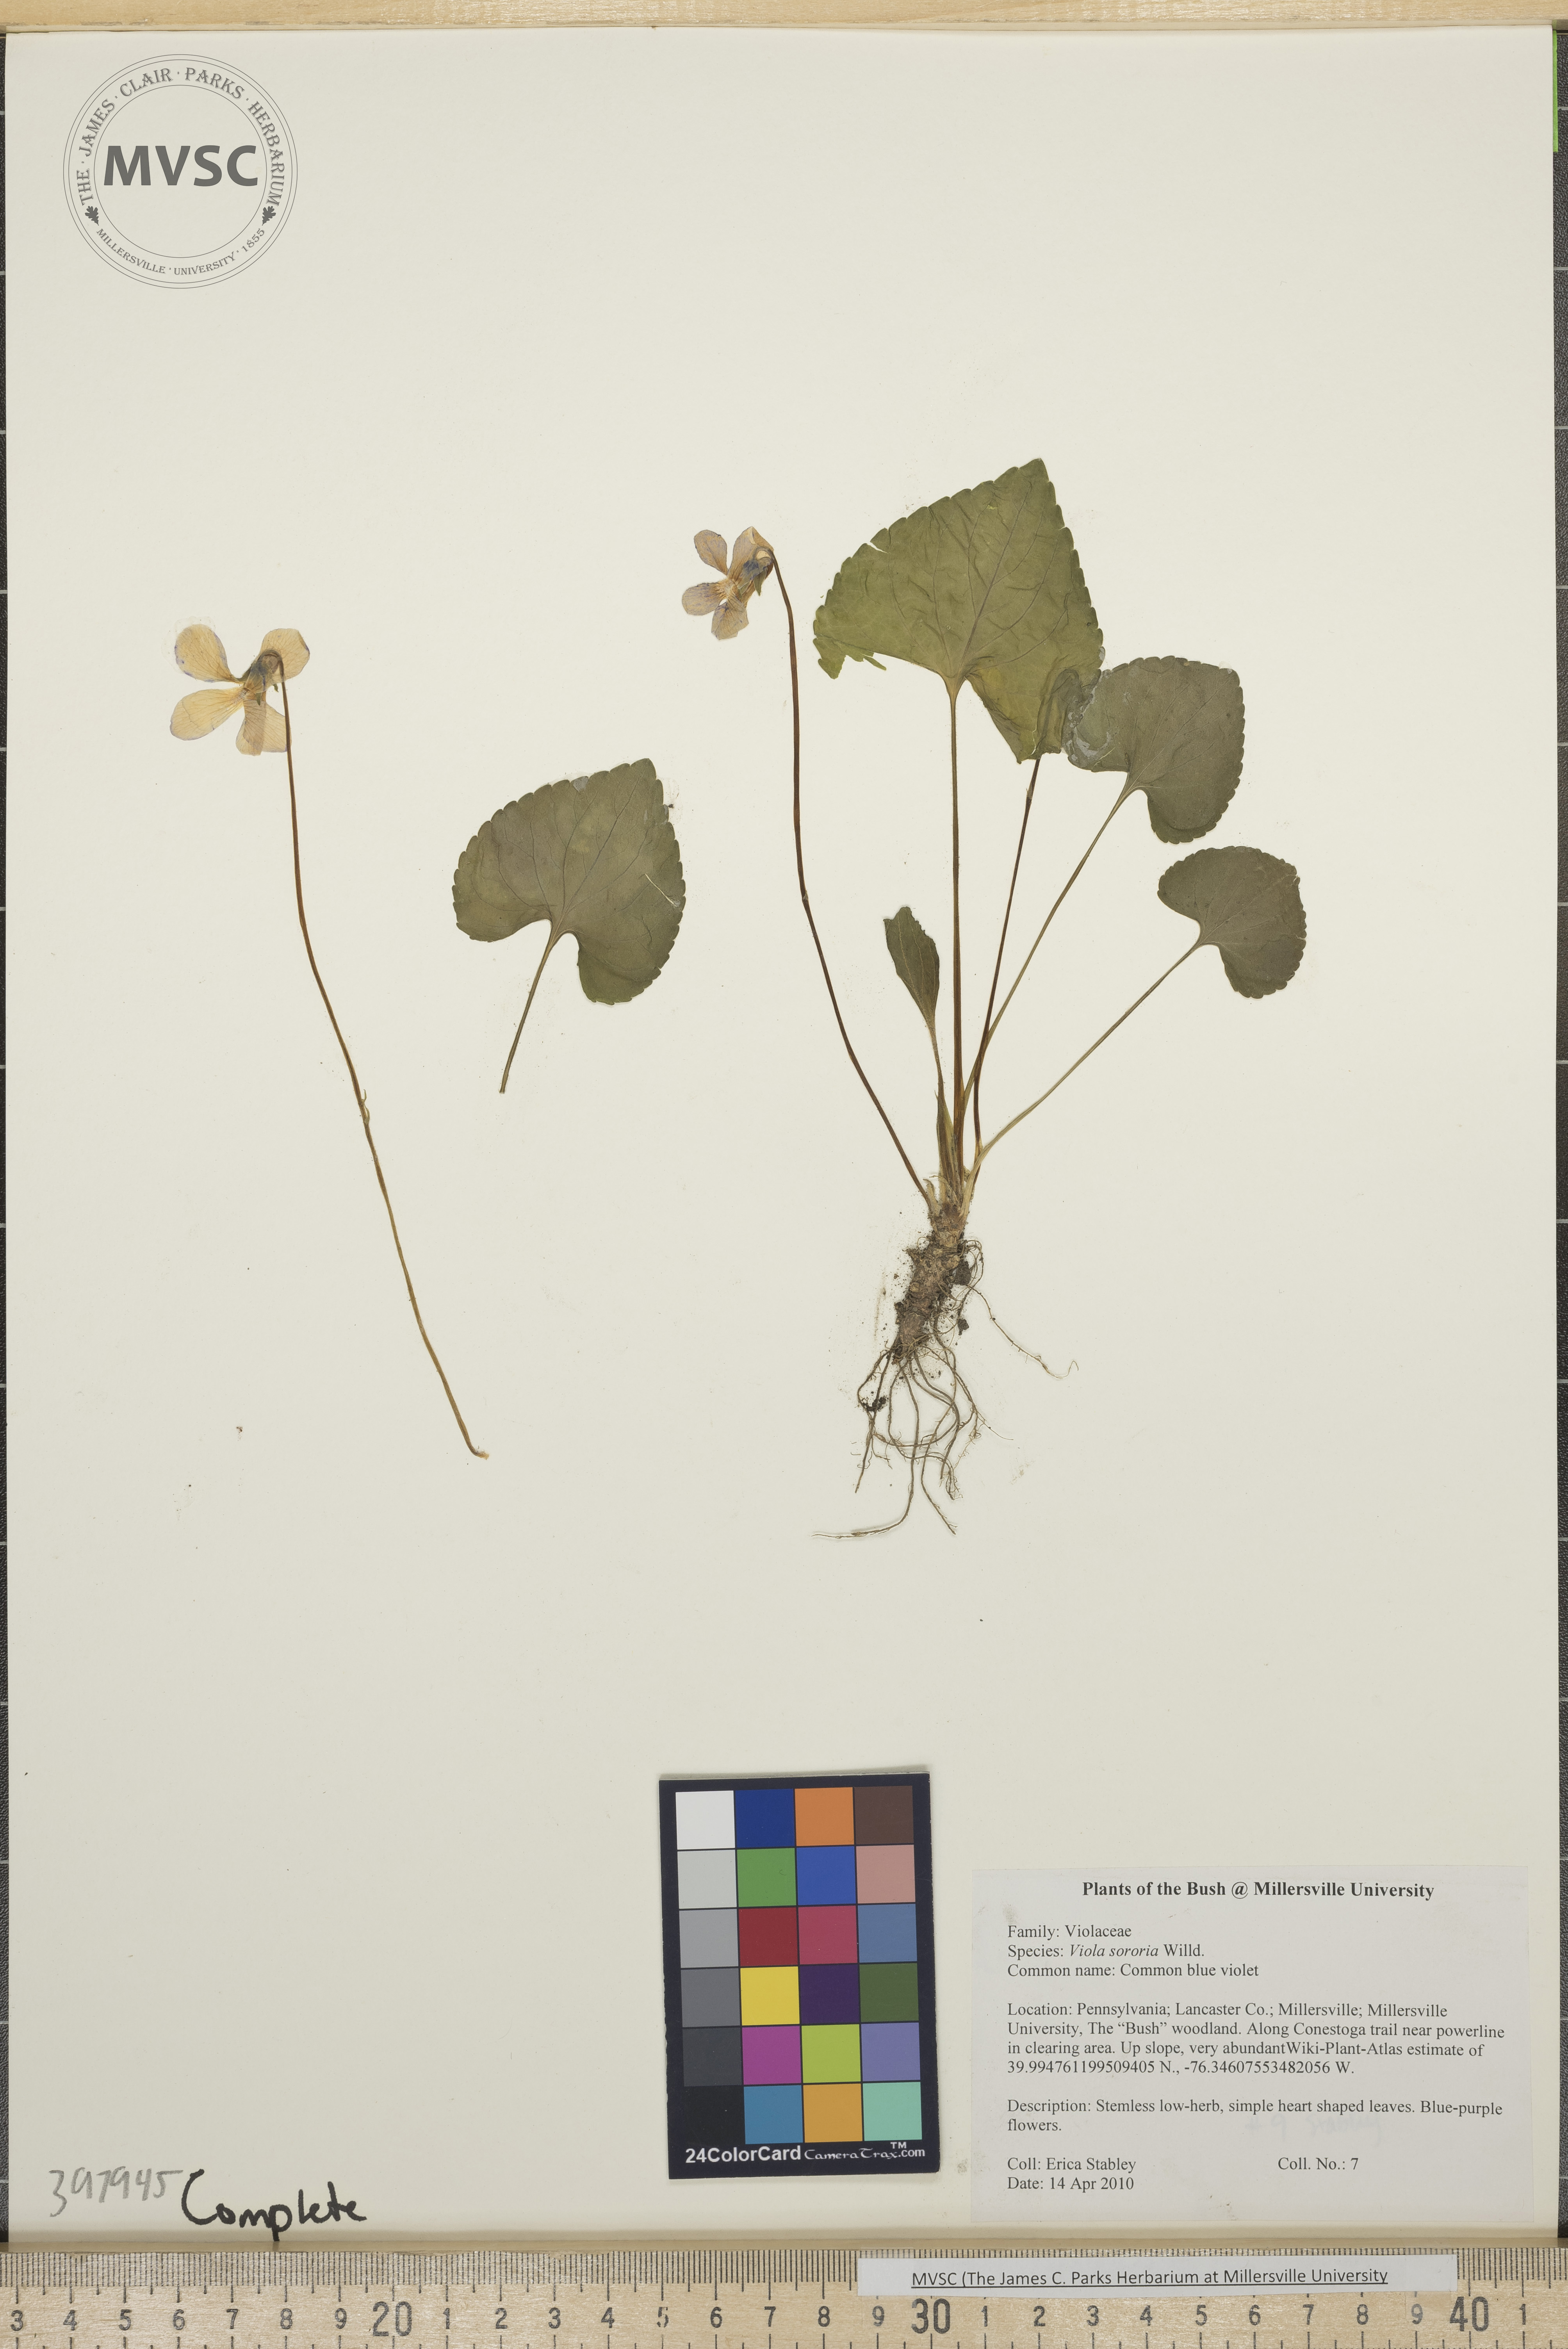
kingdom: Plantae
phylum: Tracheophyta
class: Magnoliopsida
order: Malpighiales
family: Violaceae
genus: Viola
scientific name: Viola sororia
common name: Common blue violet
